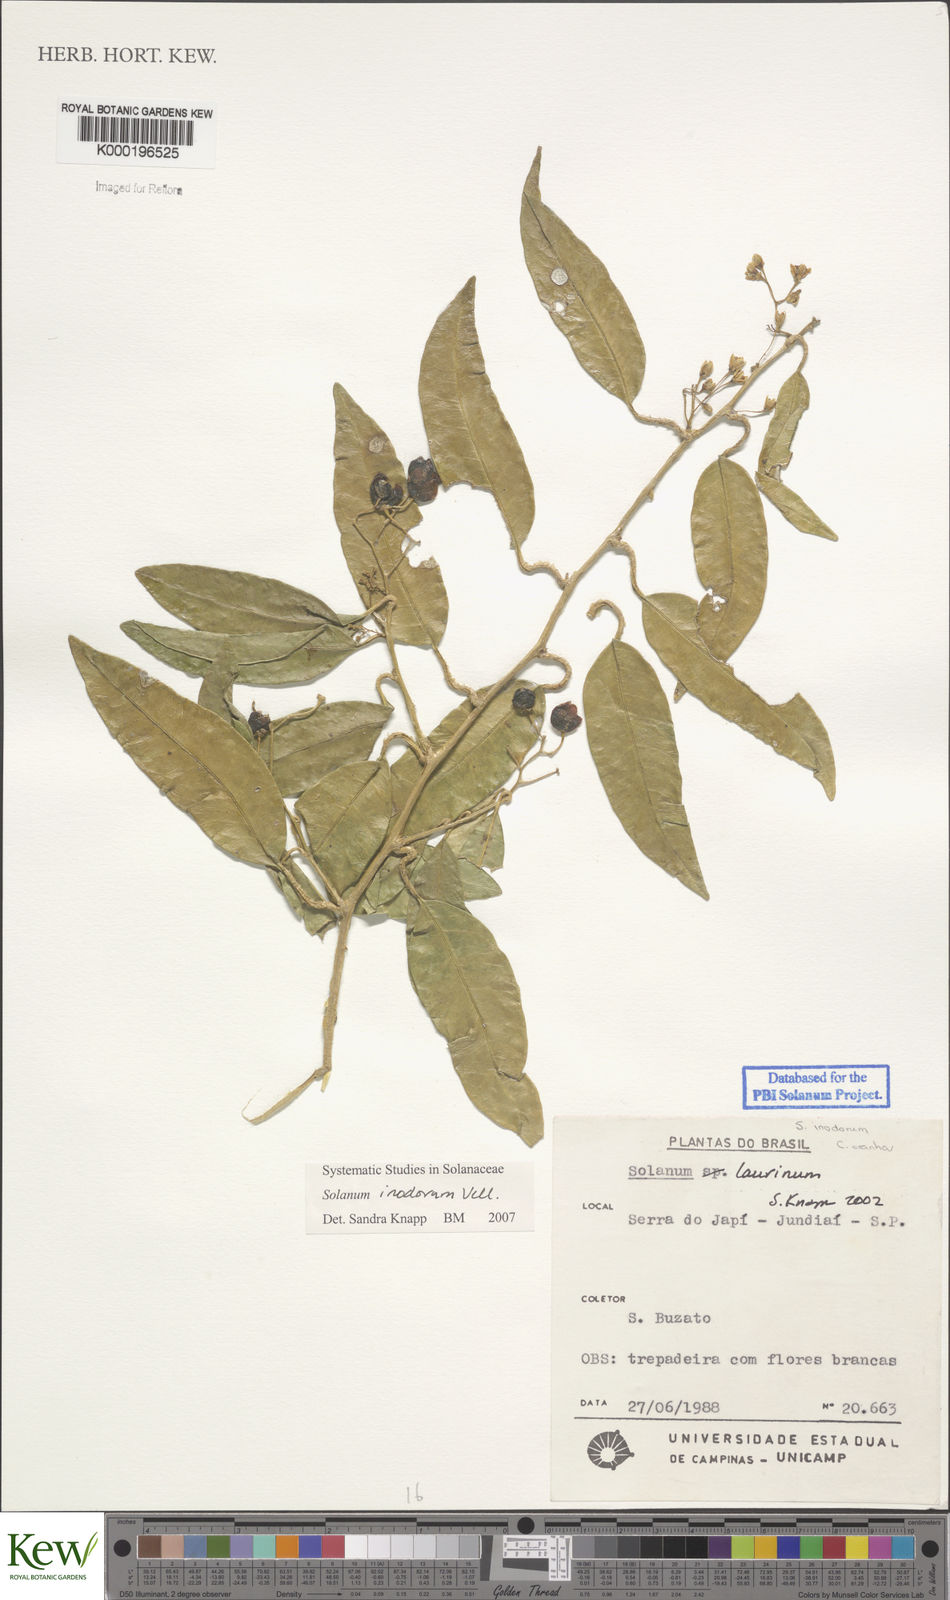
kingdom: Plantae
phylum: Tracheophyta
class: Magnoliopsida
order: Solanales
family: Solanaceae
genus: Solanum
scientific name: Solanum inodorum
